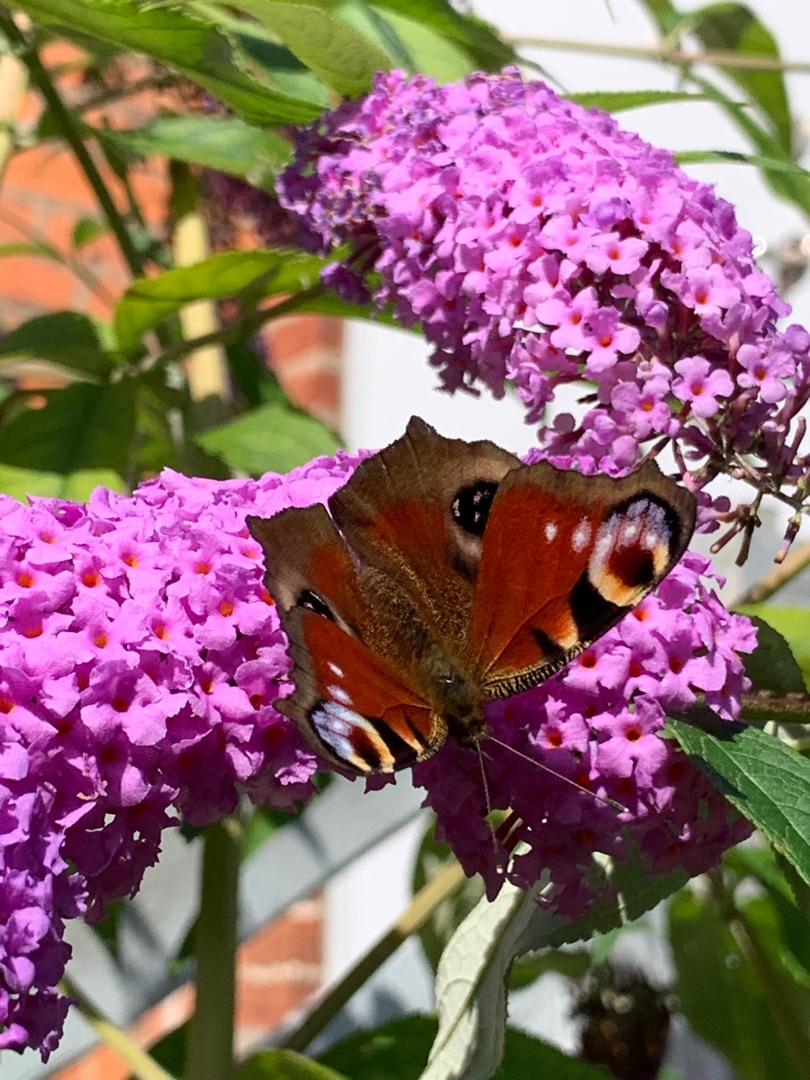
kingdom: Animalia
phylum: Arthropoda
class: Insecta
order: Lepidoptera
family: Nymphalidae
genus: Aglais
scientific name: Aglais io
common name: Dagpåfugleøje
